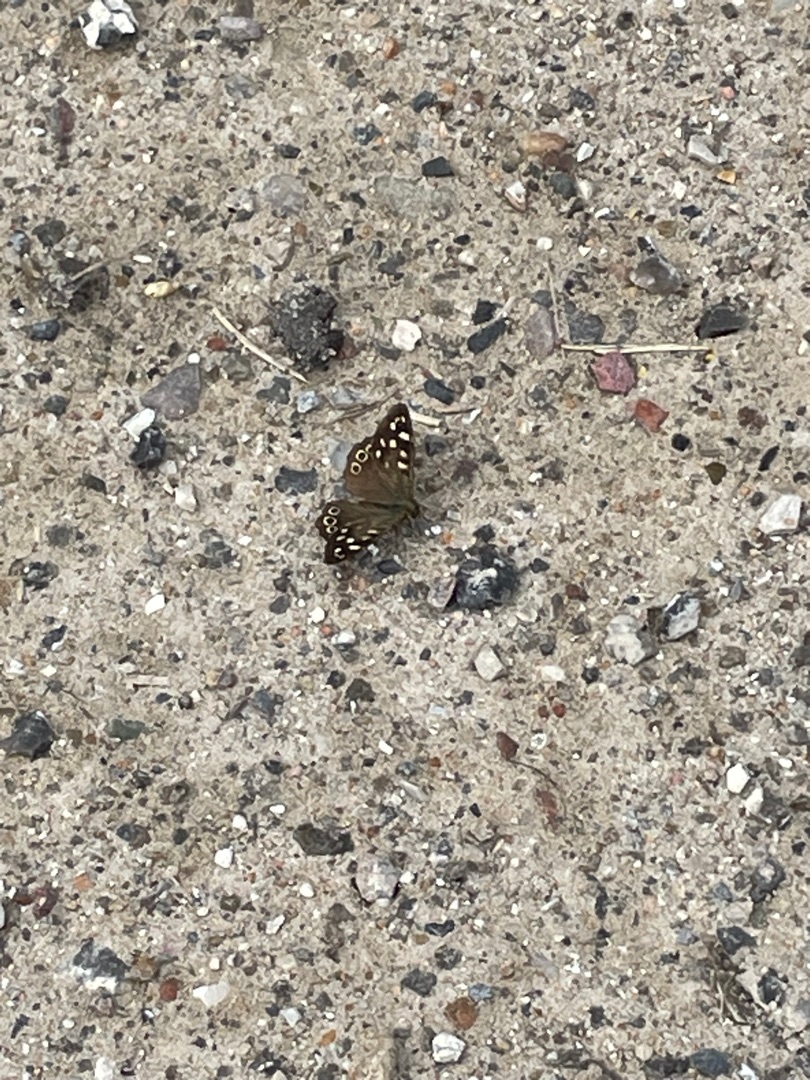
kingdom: Animalia
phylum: Arthropoda
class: Insecta
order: Lepidoptera
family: Nymphalidae
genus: Pararge
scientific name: Pararge aegeria
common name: Skovrandøje
